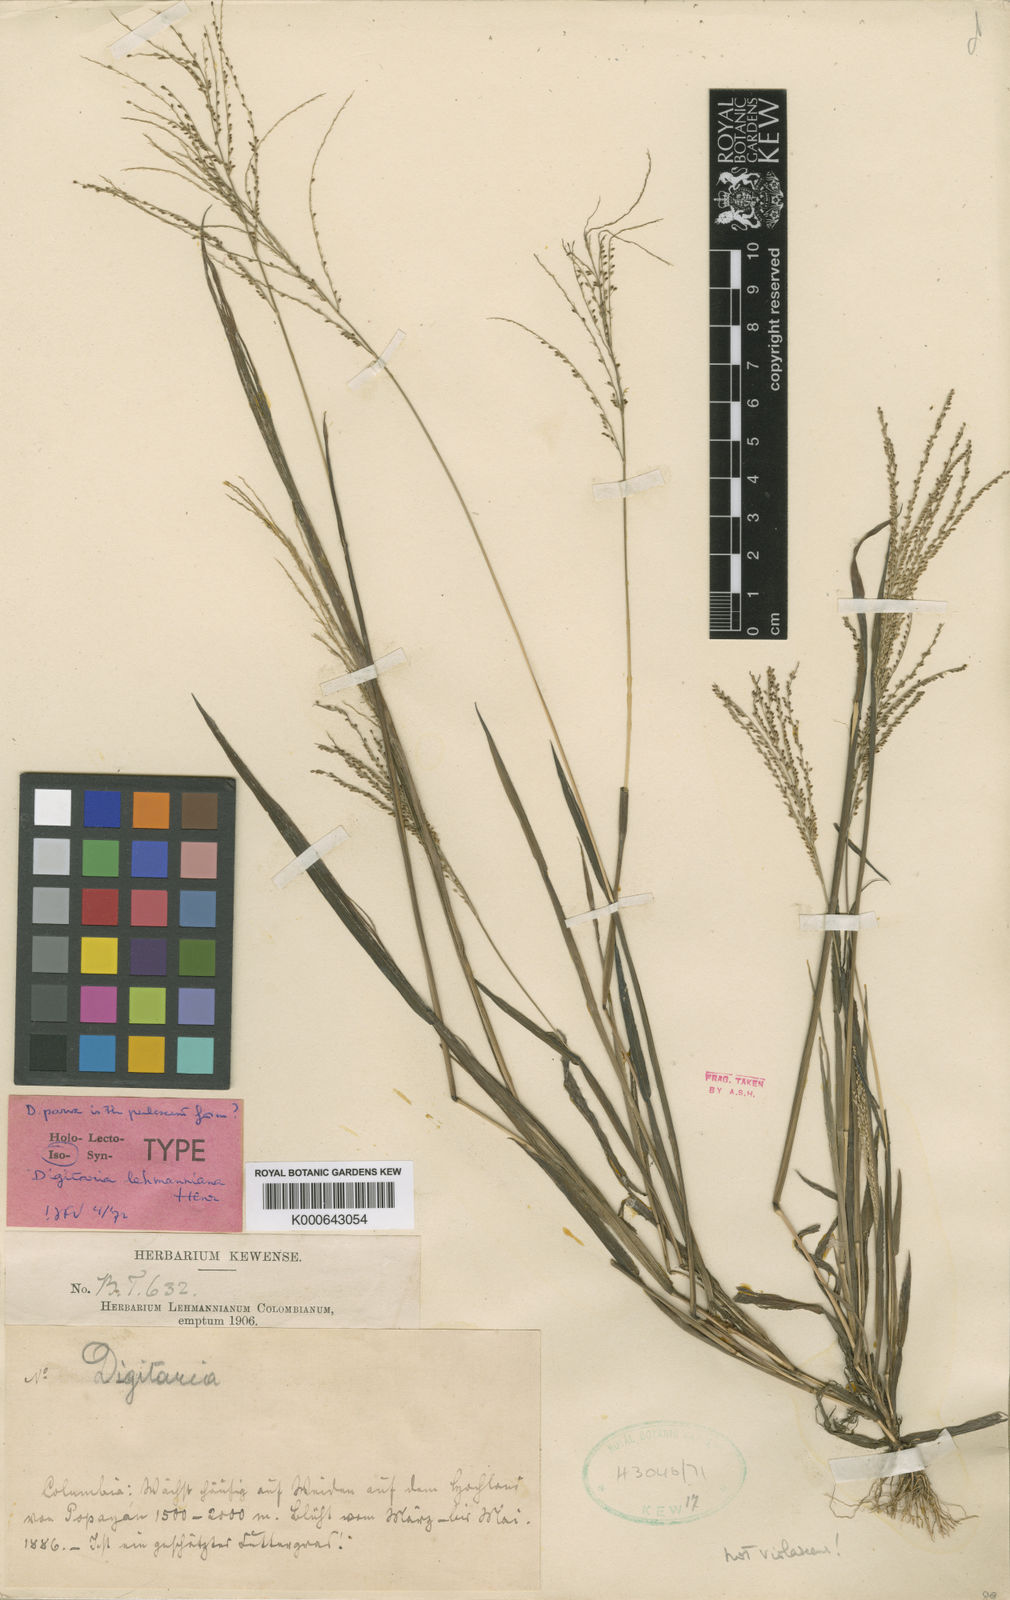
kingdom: Plantae
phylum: Tracheophyta
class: Liliopsida
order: Poales
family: Poaceae
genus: Digitaria
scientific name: Digitaria lehmanniana
